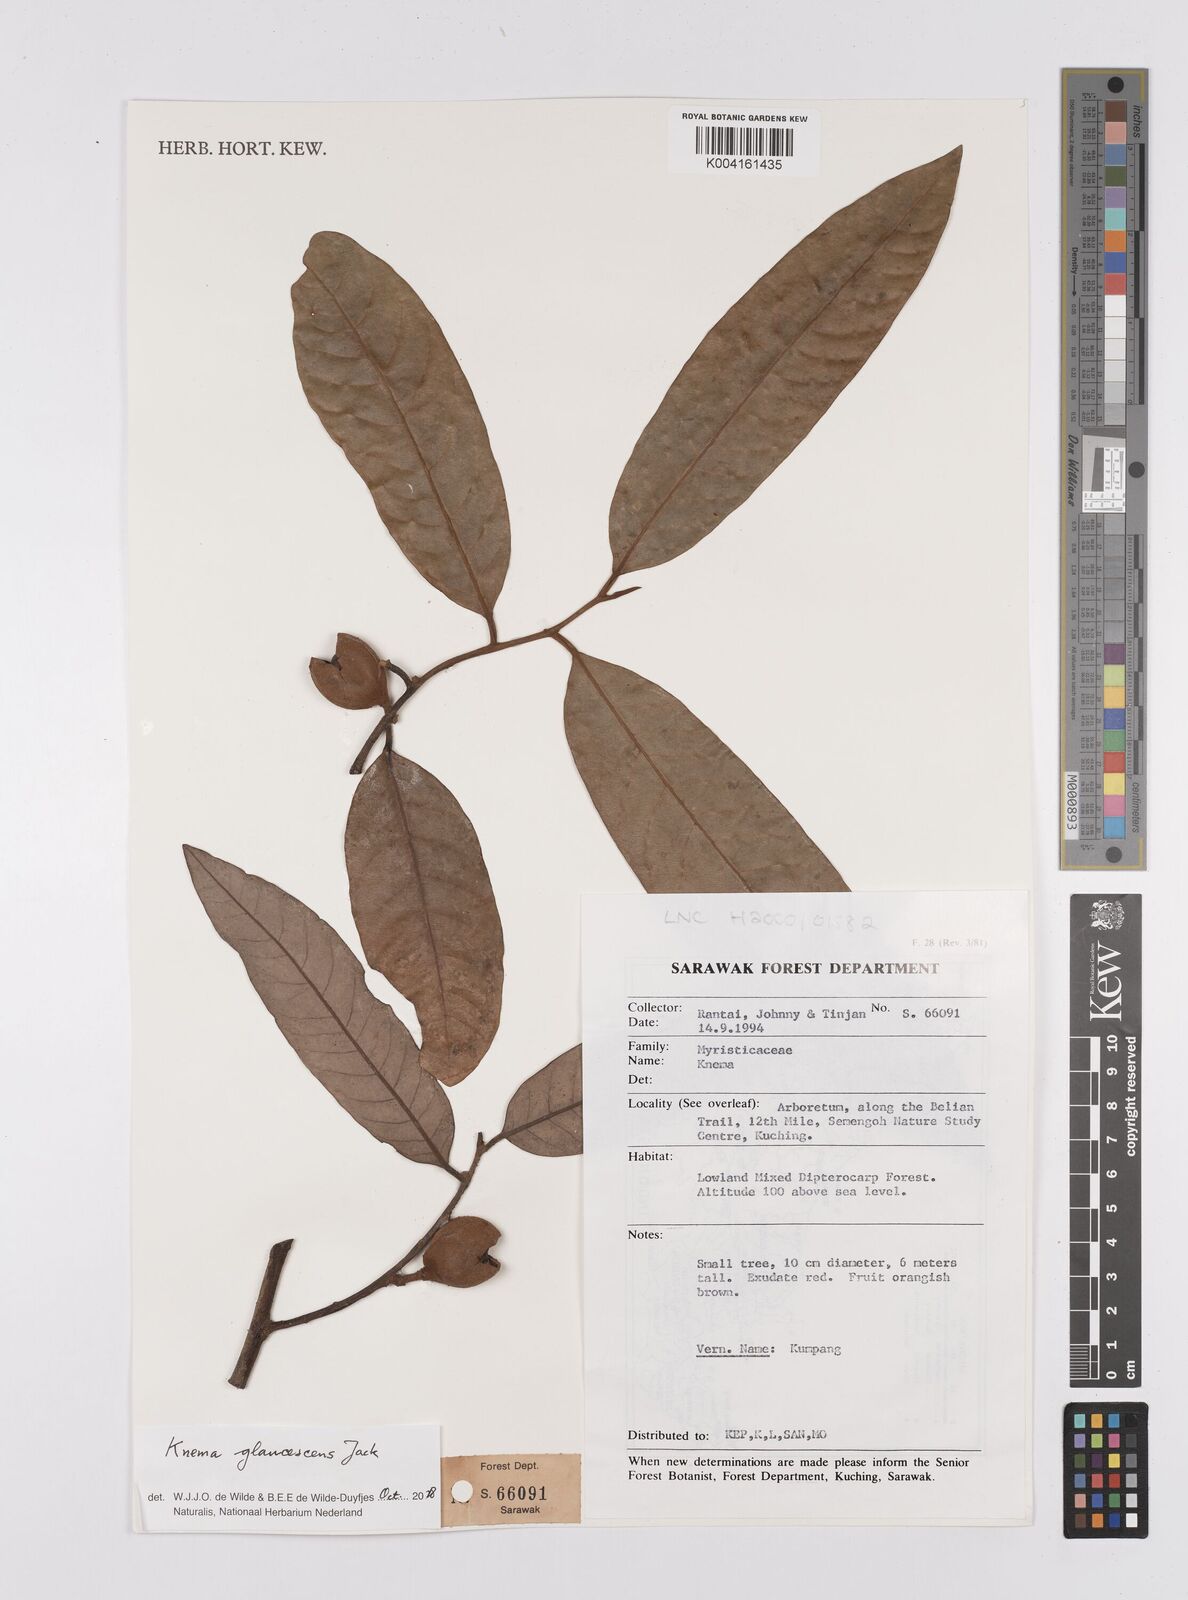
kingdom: Plantae
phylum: Tracheophyta
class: Magnoliopsida
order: Magnoliales
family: Myristicaceae
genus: Knema
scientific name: Knema
